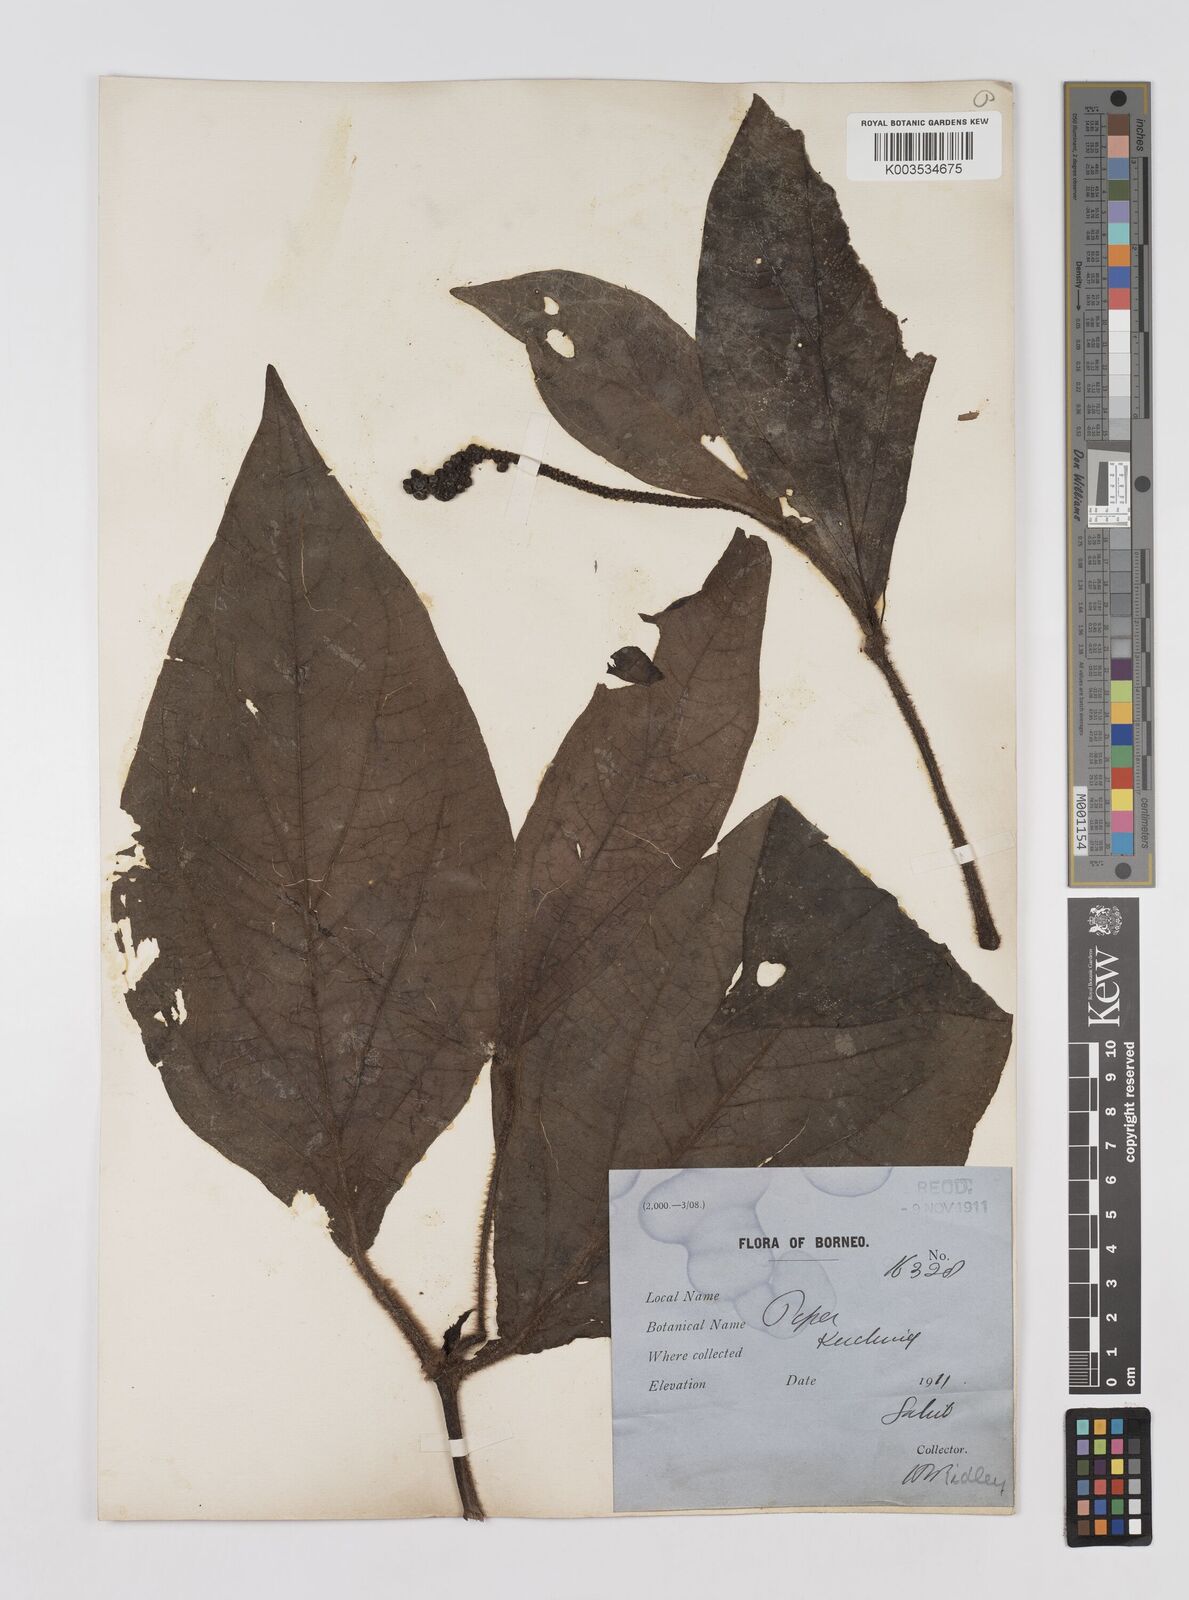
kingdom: Plantae
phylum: Tracheophyta
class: Magnoliopsida
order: Piperales
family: Piperaceae
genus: Piper
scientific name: Piper muricatum
